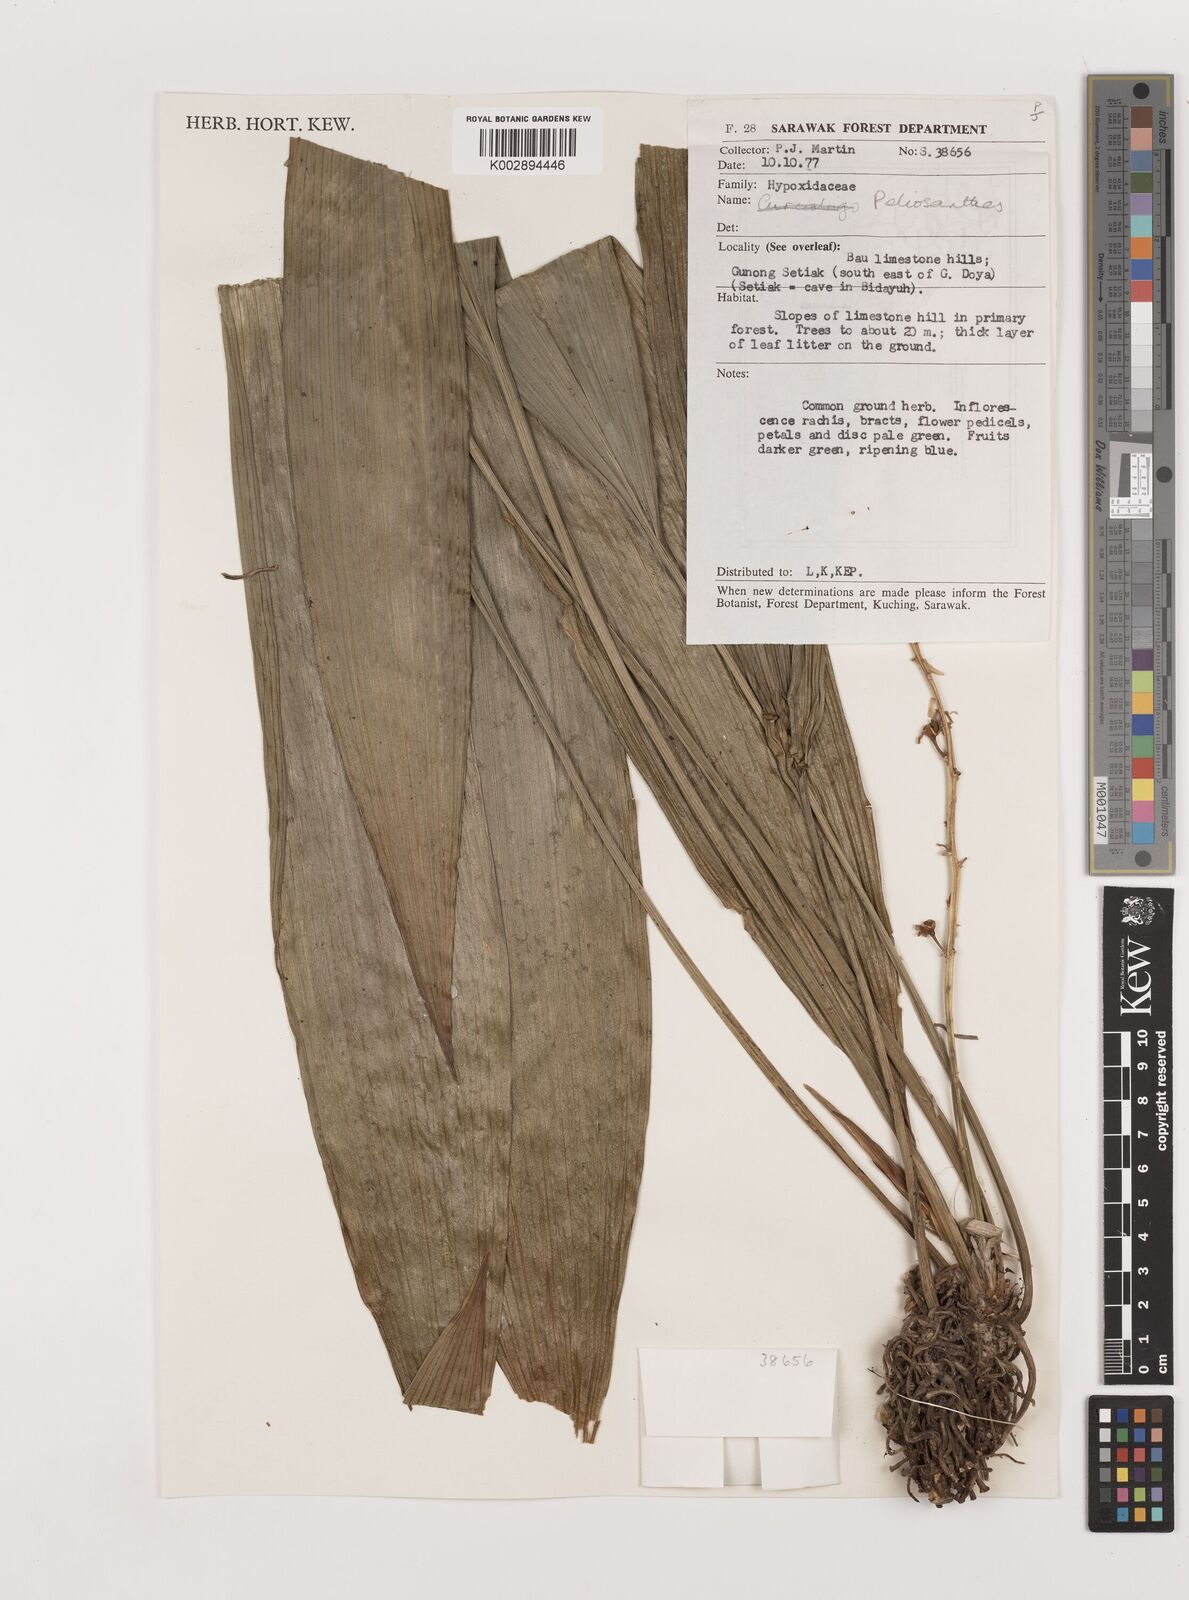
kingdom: Plantae
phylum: Tracheophyta
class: Liliopsida
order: Asparagales
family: Asparagaceae
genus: Peliosanthes
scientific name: Peliosanthes
